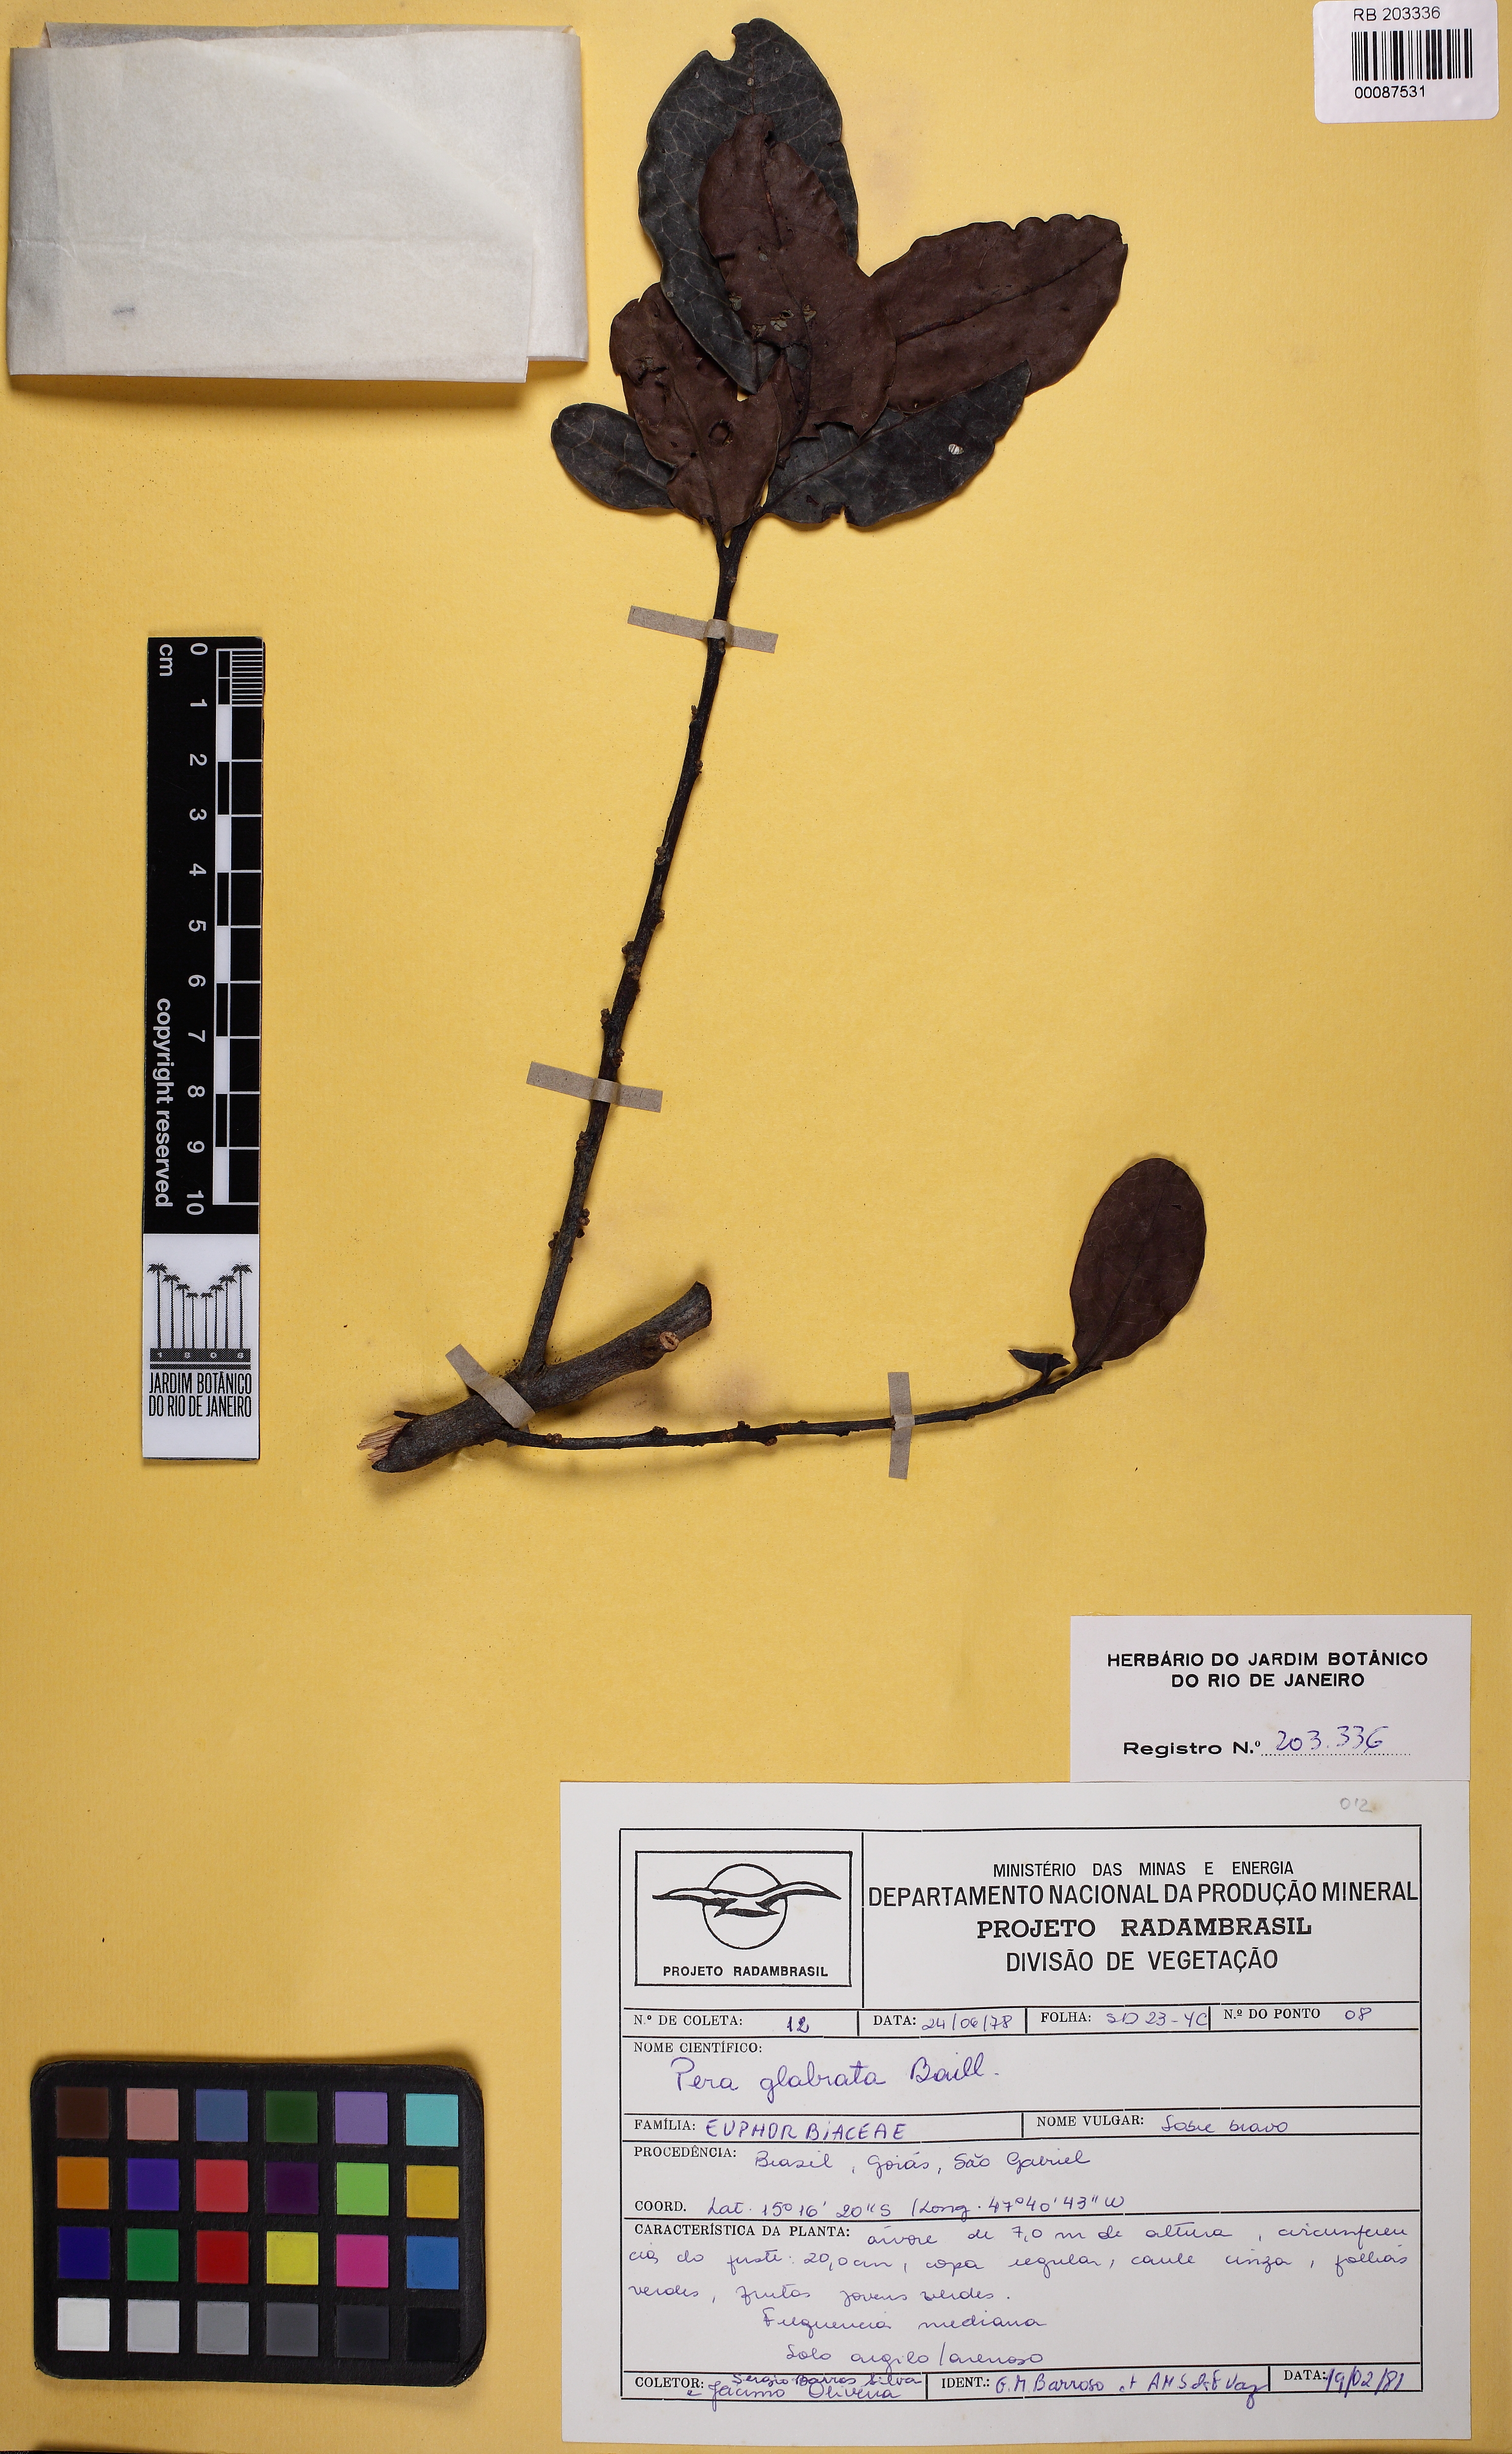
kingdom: Plantae
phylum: Tracheophyta
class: Magnoliopsida
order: Malpighiales
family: Peraceae
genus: Pera
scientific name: Pera glabrata
